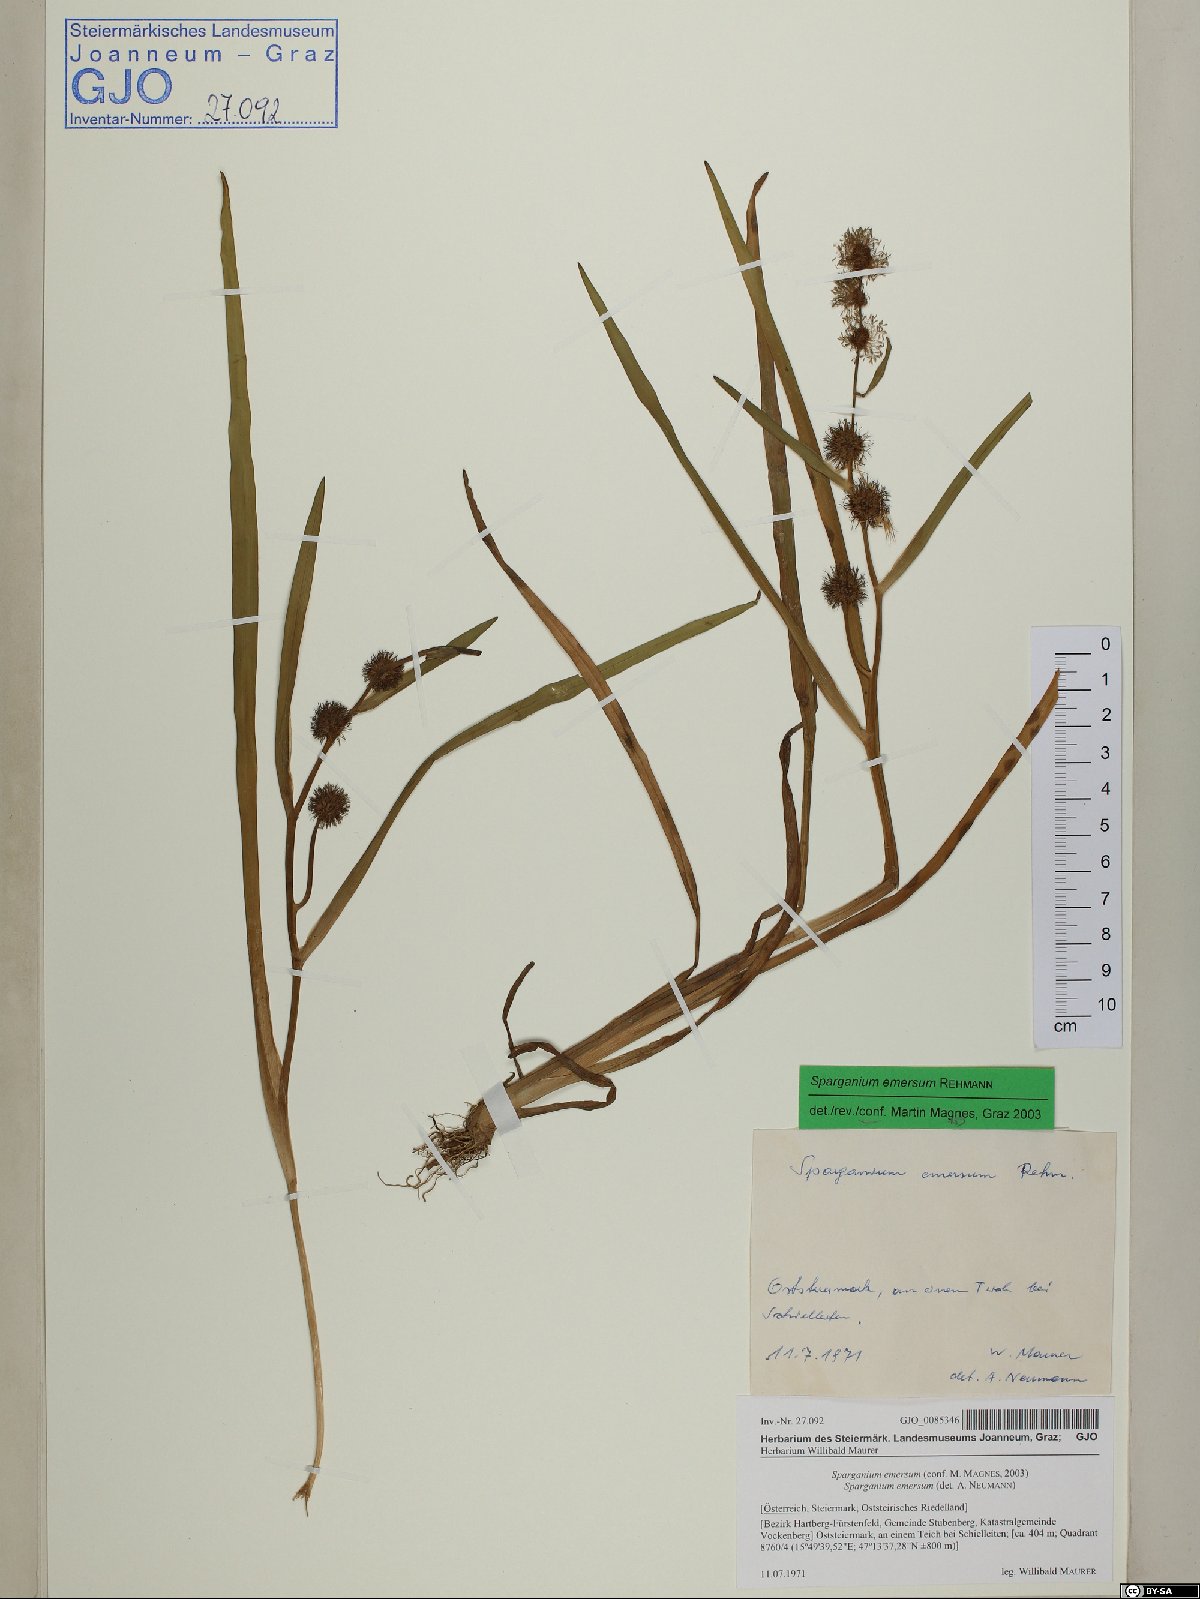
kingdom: Plantae
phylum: Tracheophyta
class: Liliopsida
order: Poales
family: Typhaceae
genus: Sparganium
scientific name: Sparganium emersum
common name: Unbranched bur-reed
